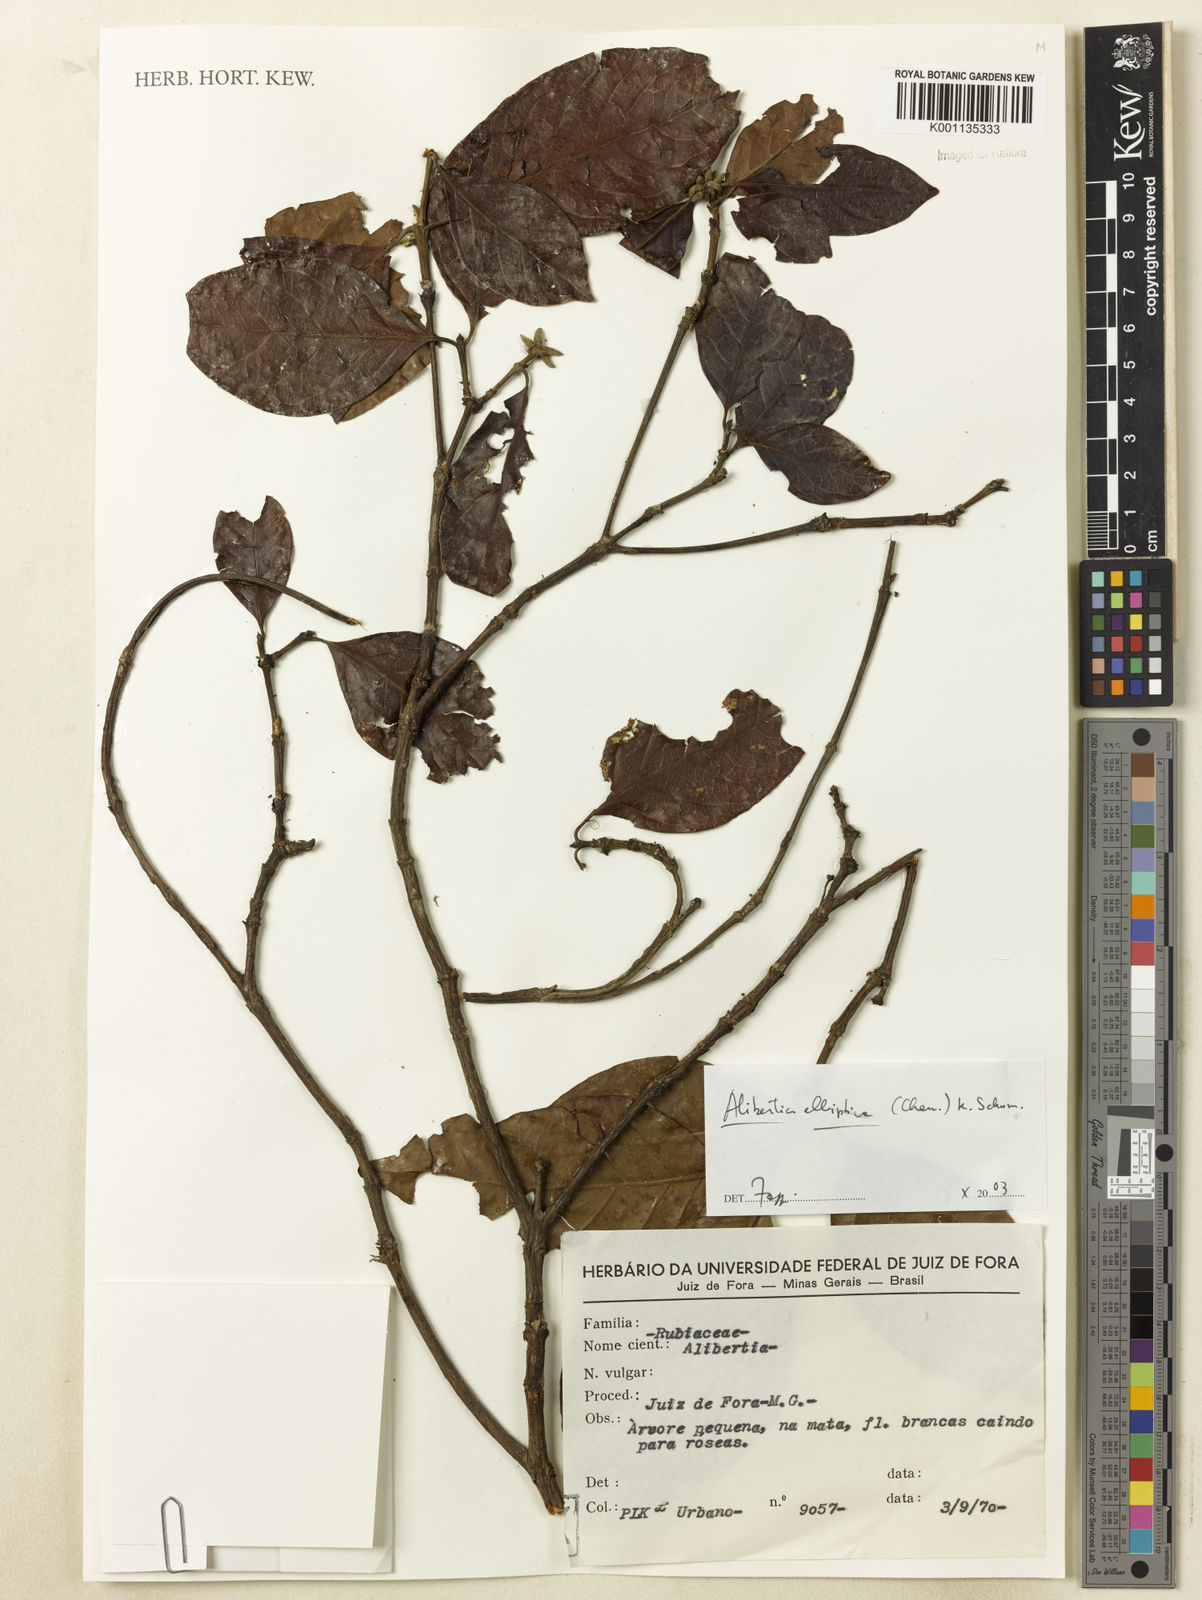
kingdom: Plantae
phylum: Tracheophyta
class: Magnoliopsida
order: Gentianales
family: Rubiaceae
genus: Cordiera
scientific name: Cordiera elliptica
